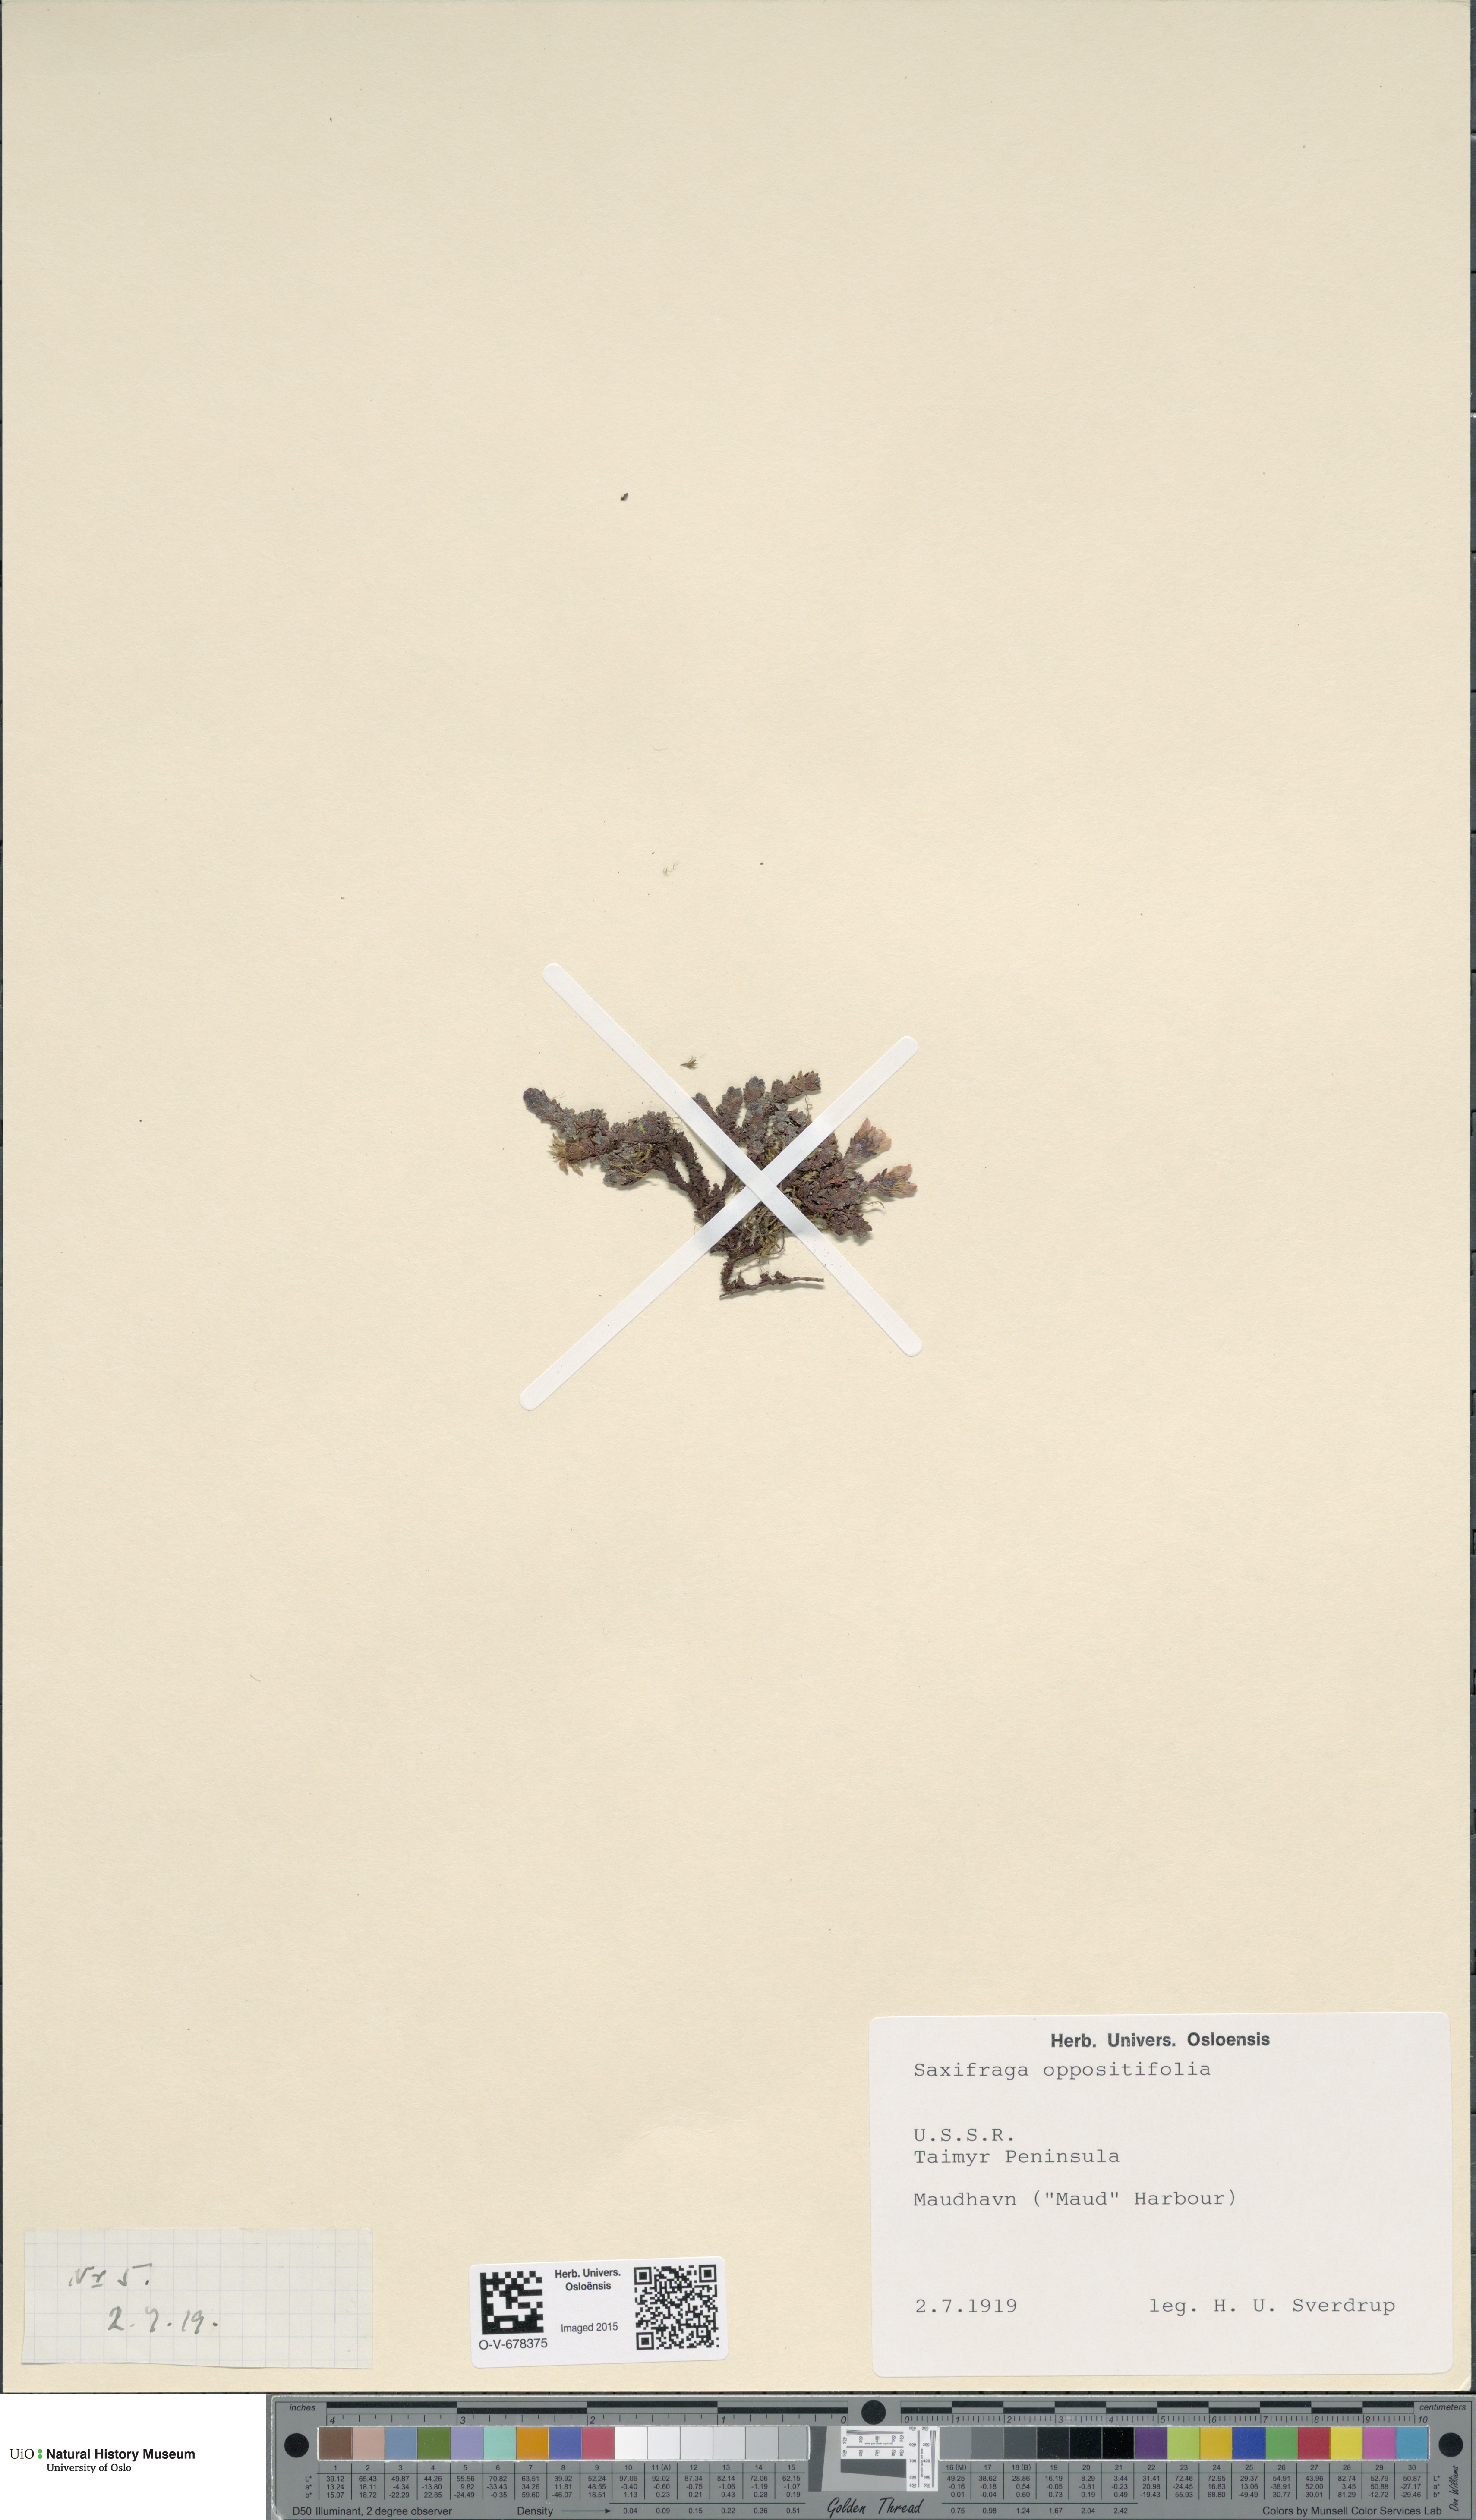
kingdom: Plantae
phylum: Tracheophyta
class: Magnoliopsida
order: Saxifragales
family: Saxifragaceae
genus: Saxifraga
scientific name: Saxifraga oppositifolia
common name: Purple saxifrage
